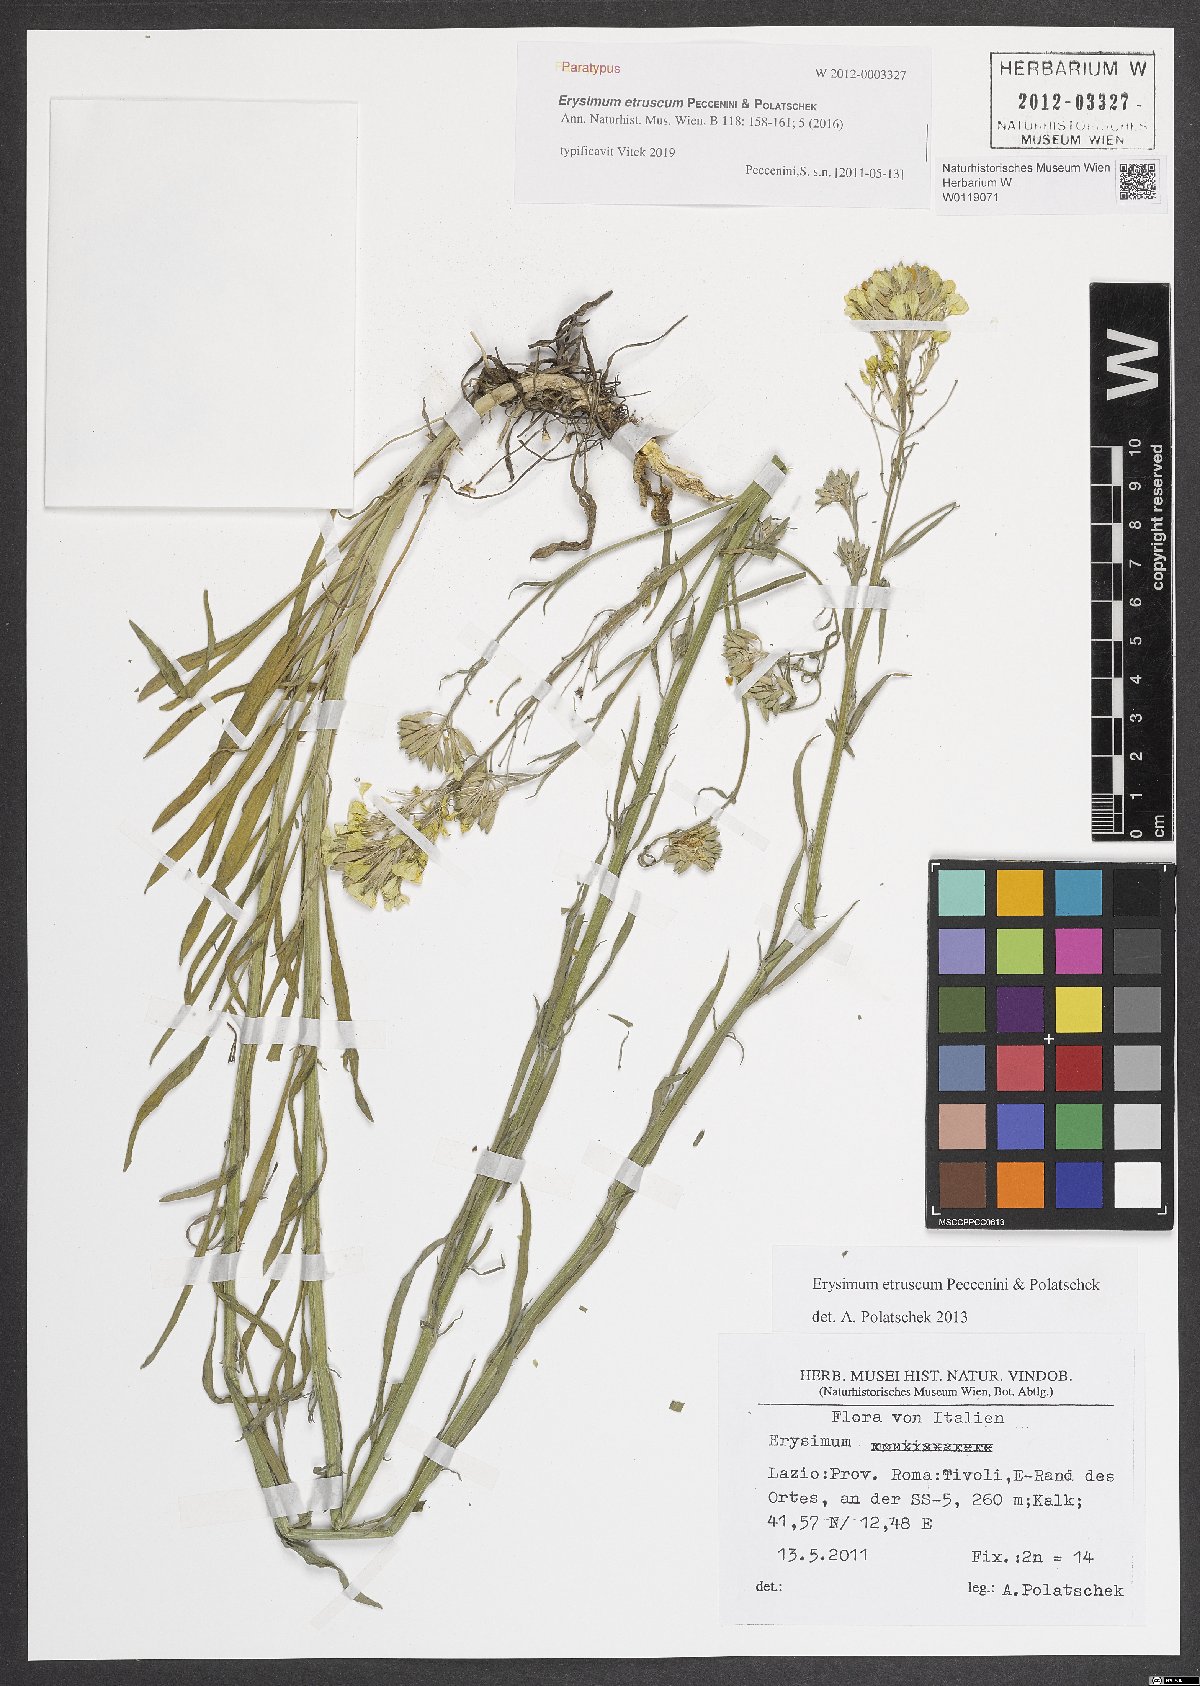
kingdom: Plantae
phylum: Tracheophyta
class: Magnoliopsida
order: Brassicales
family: Brassicaceae
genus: Erysimum
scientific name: Erysimum pseudorhaeticum
